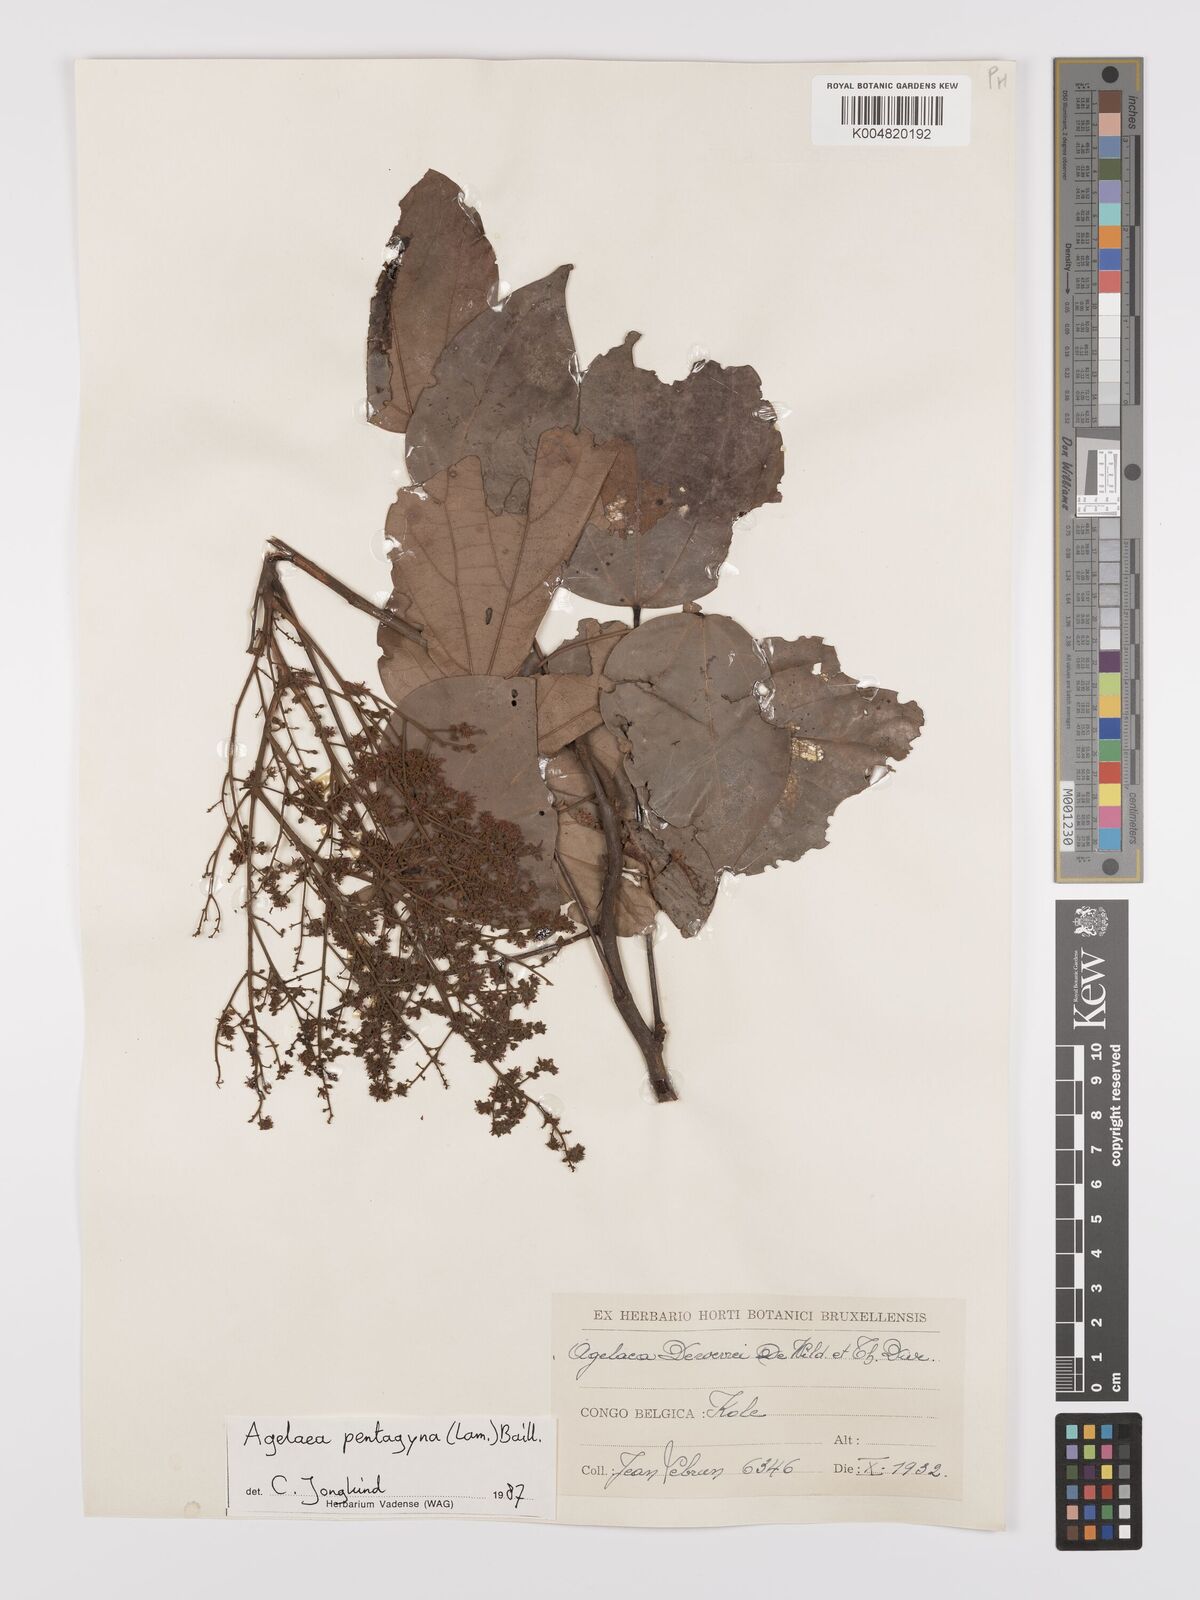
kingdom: Plantae
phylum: Tracheophyta
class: Magnoliopsida
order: Oxalidales
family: Connaraceae
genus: Agelaea
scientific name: Agelaea pentagyna
